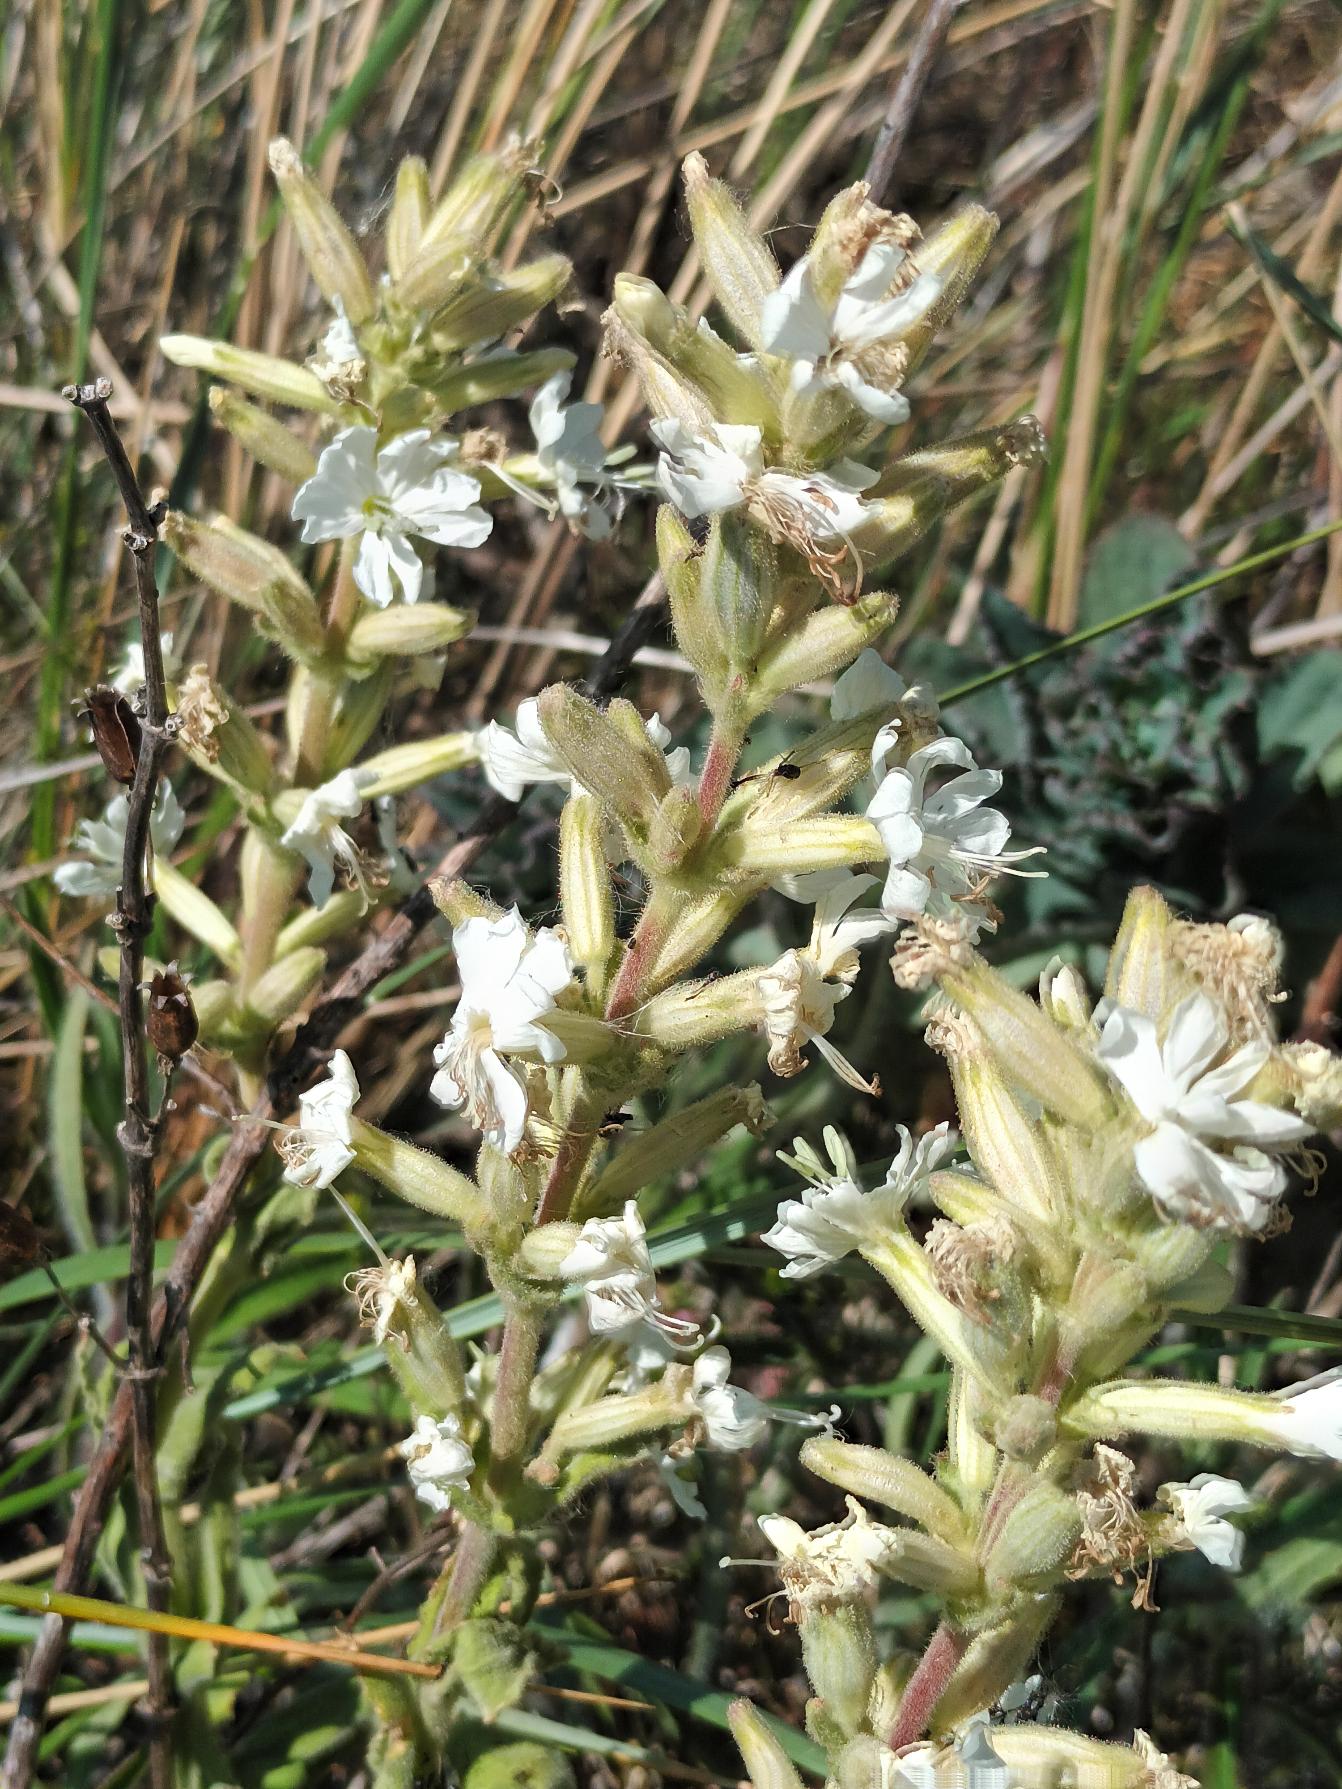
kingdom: Plantae
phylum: Tracheophyta
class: Magnoliopsida
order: Caryophyllales
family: Caryophyllaceae
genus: Silene
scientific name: Silene viscosa
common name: Klæbrig limurt
